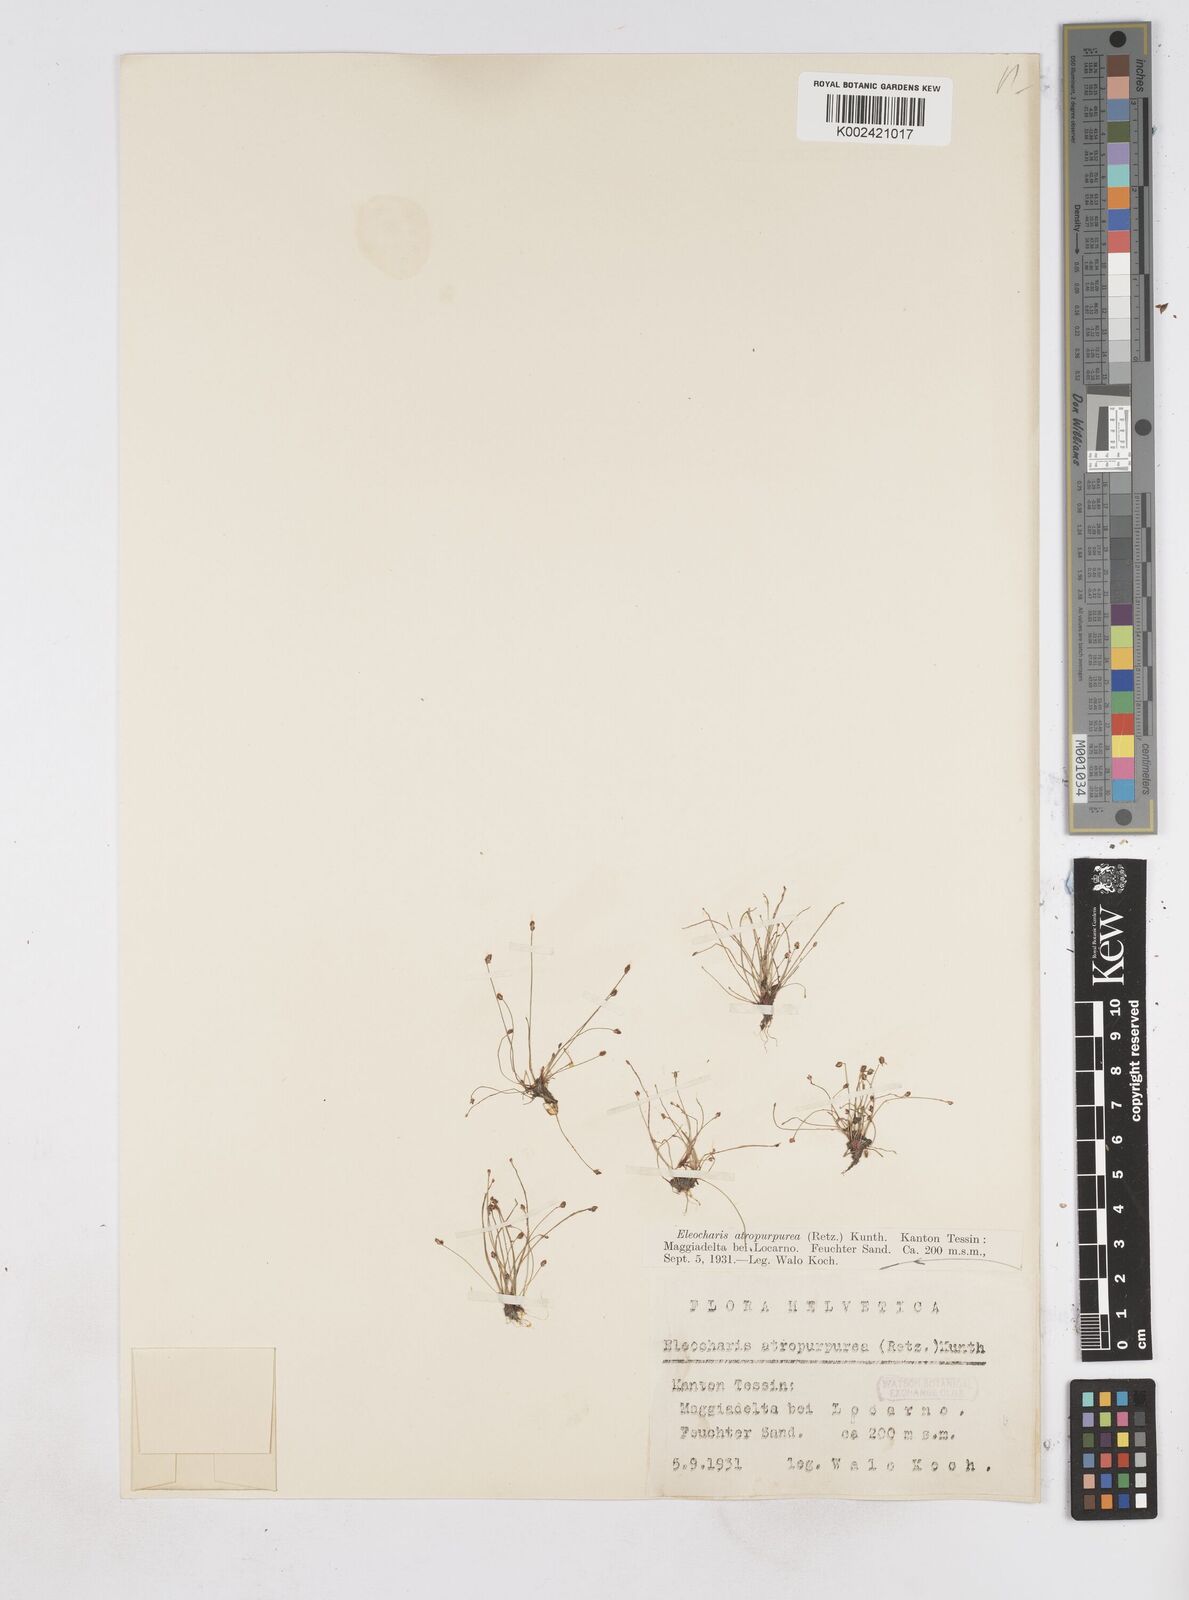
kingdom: Plantae
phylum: Tracheophyta
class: Liliopsida
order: Poales
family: Cyperaceae
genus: Eleocharis
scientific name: Eleocharis atropurpurea
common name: Purple spikerush
